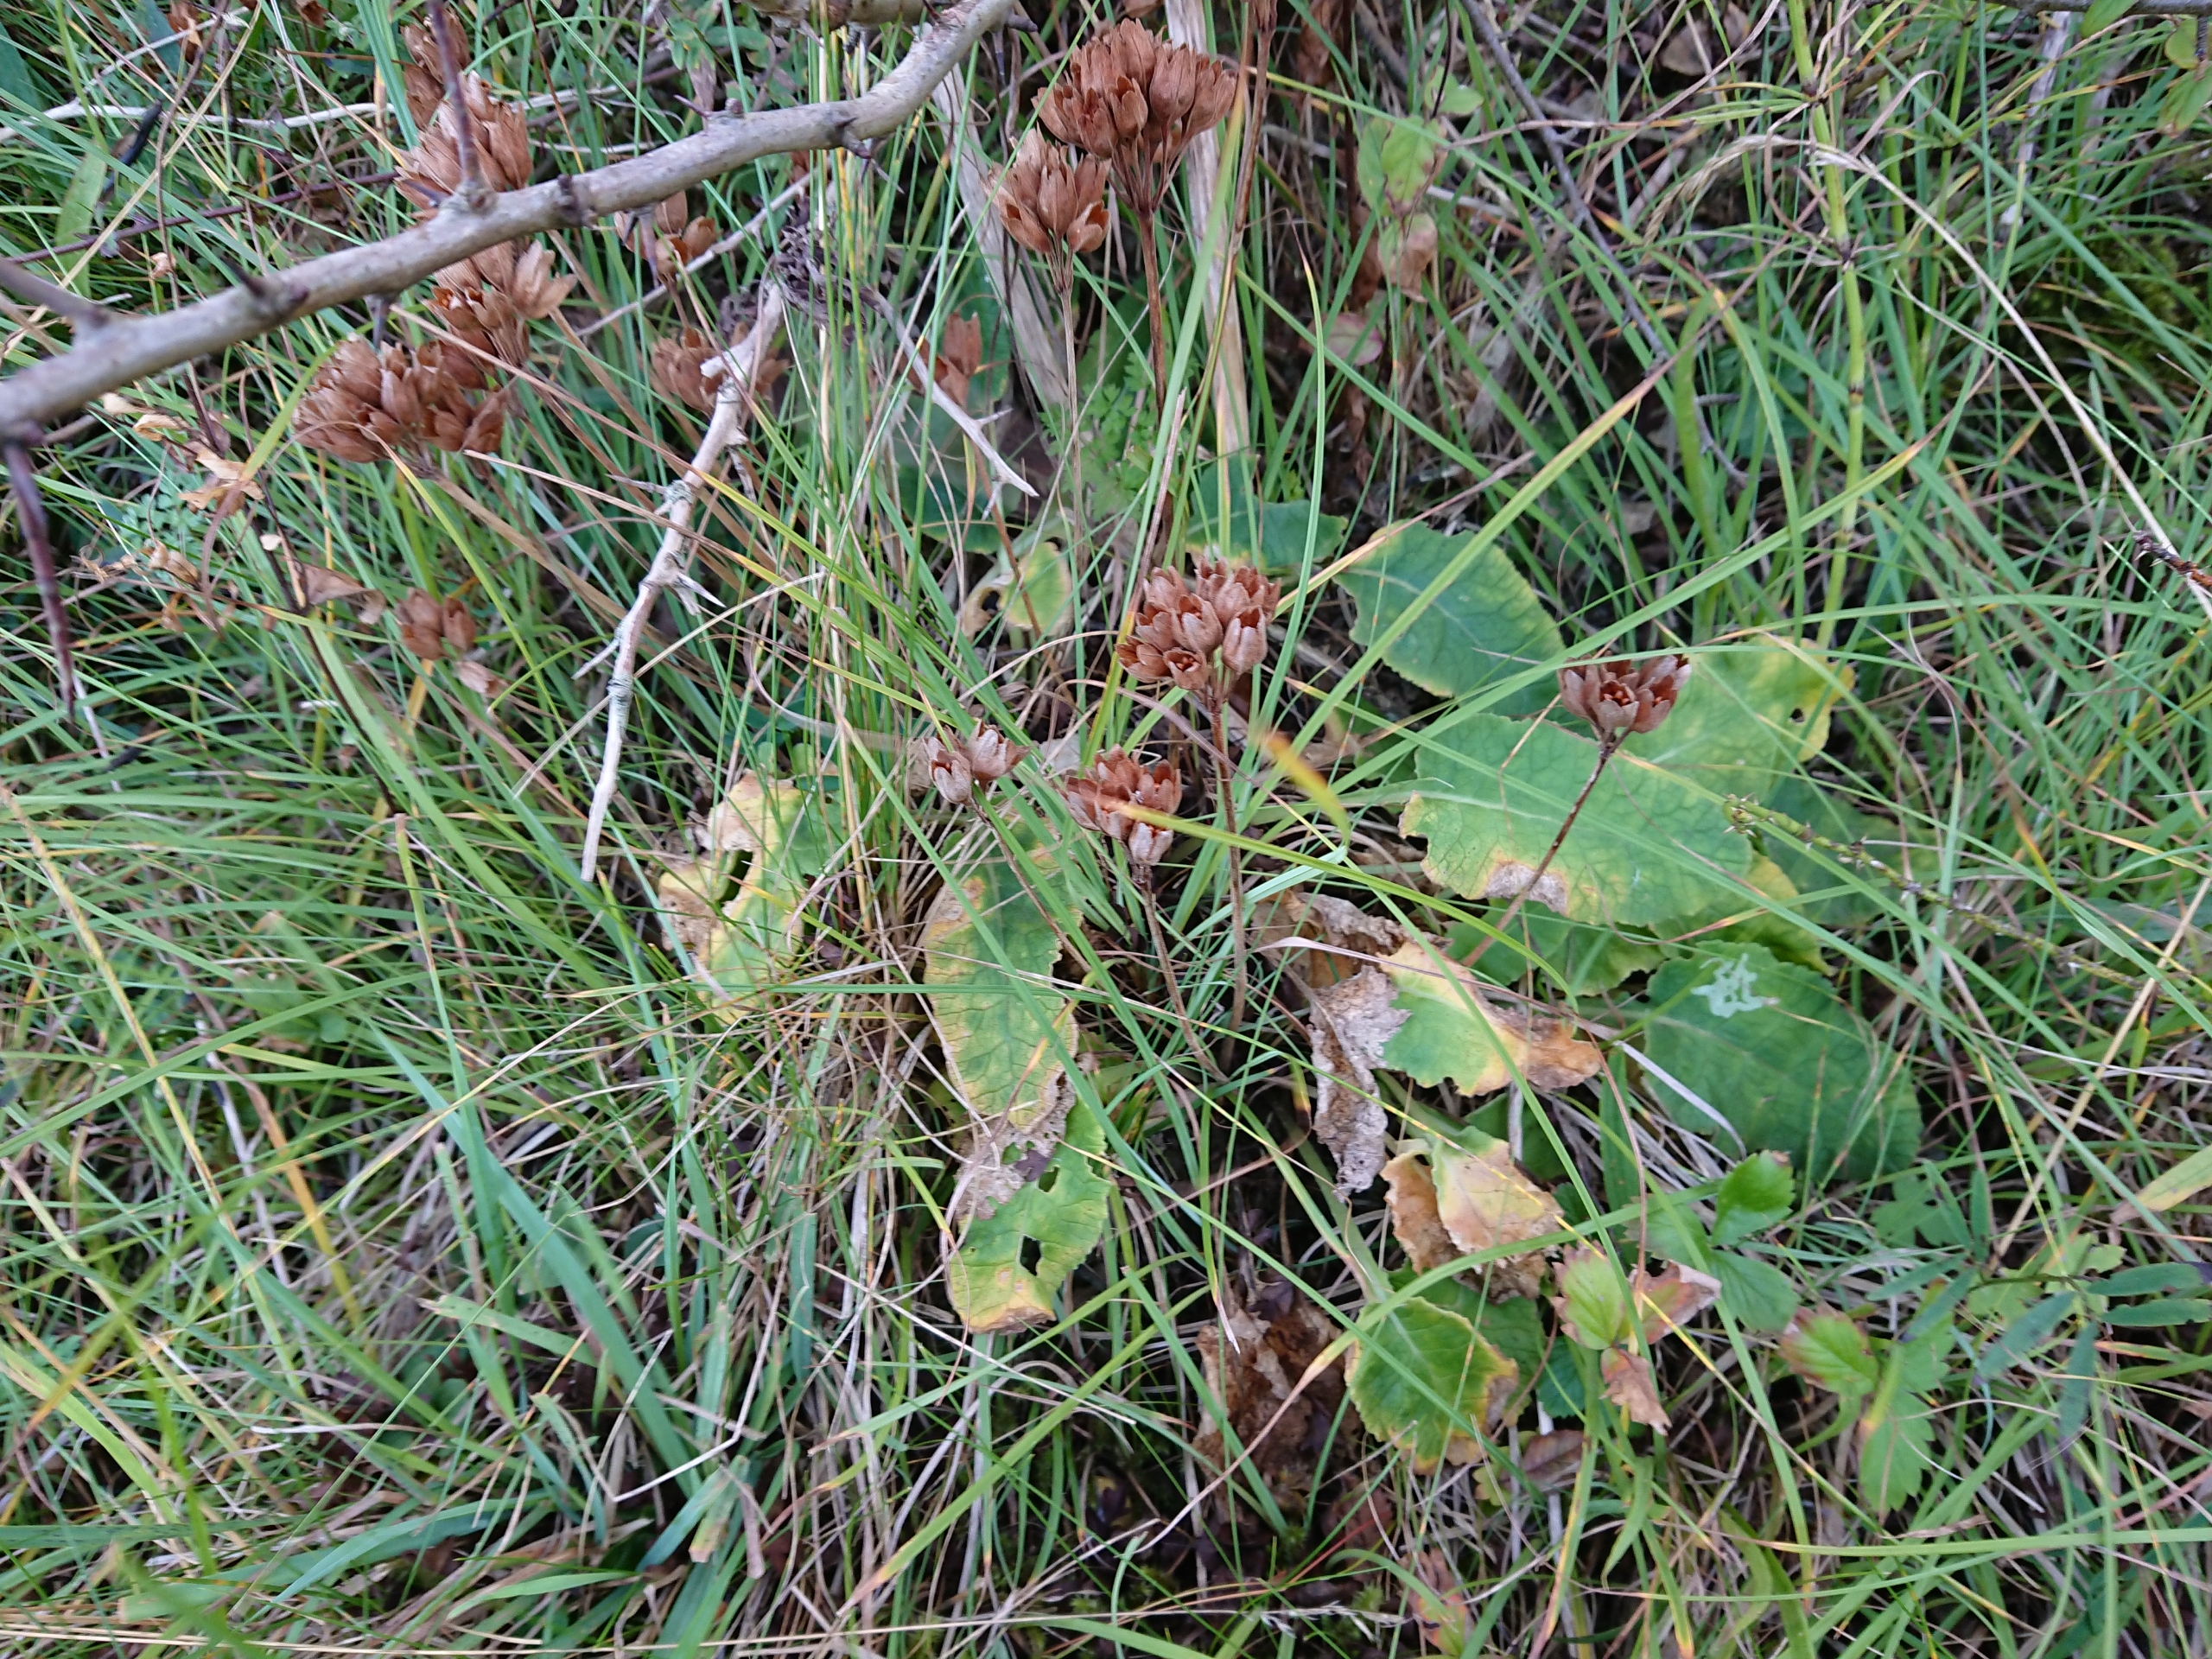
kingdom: Plantae
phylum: Tracheophyta
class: Magnoliopsida
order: Ericales
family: Primulaceae
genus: Primula
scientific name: Primula veris
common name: Hulkravet kodriver
